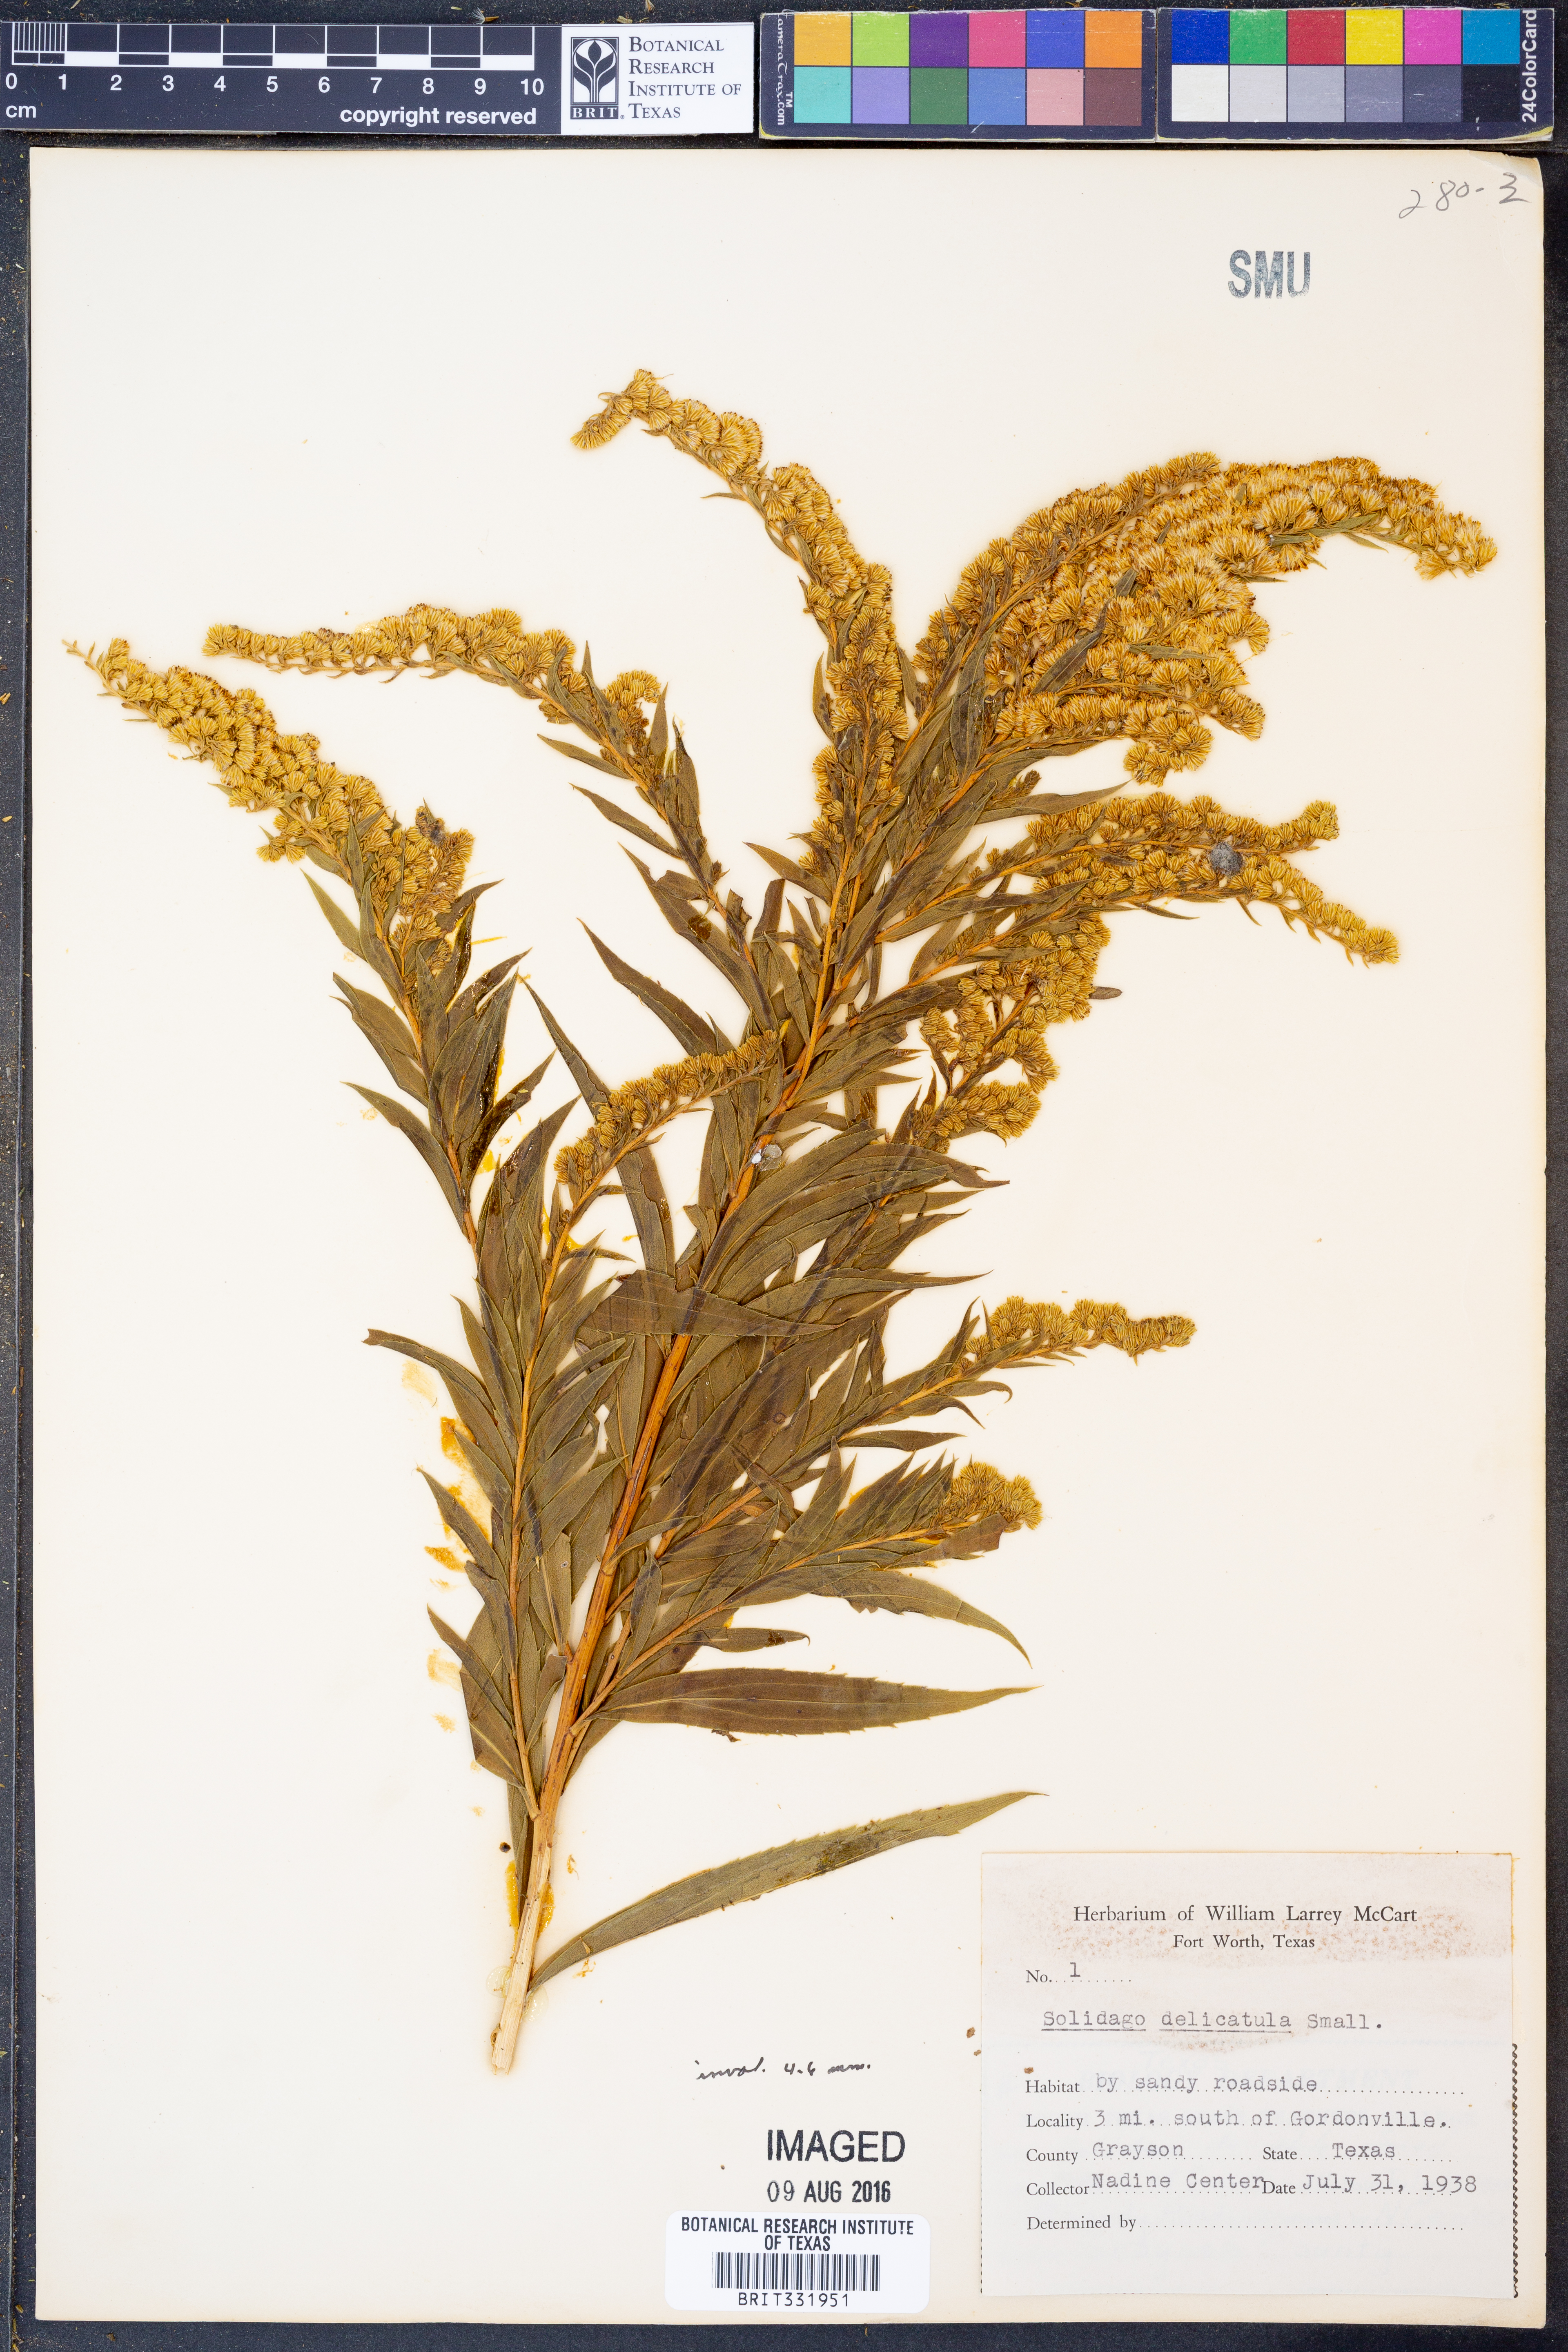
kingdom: Plantae
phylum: Tracheophyta
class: Magnoliopsida
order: Asterales
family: Asteraceae
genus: Solidago
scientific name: Solidago delicatula
